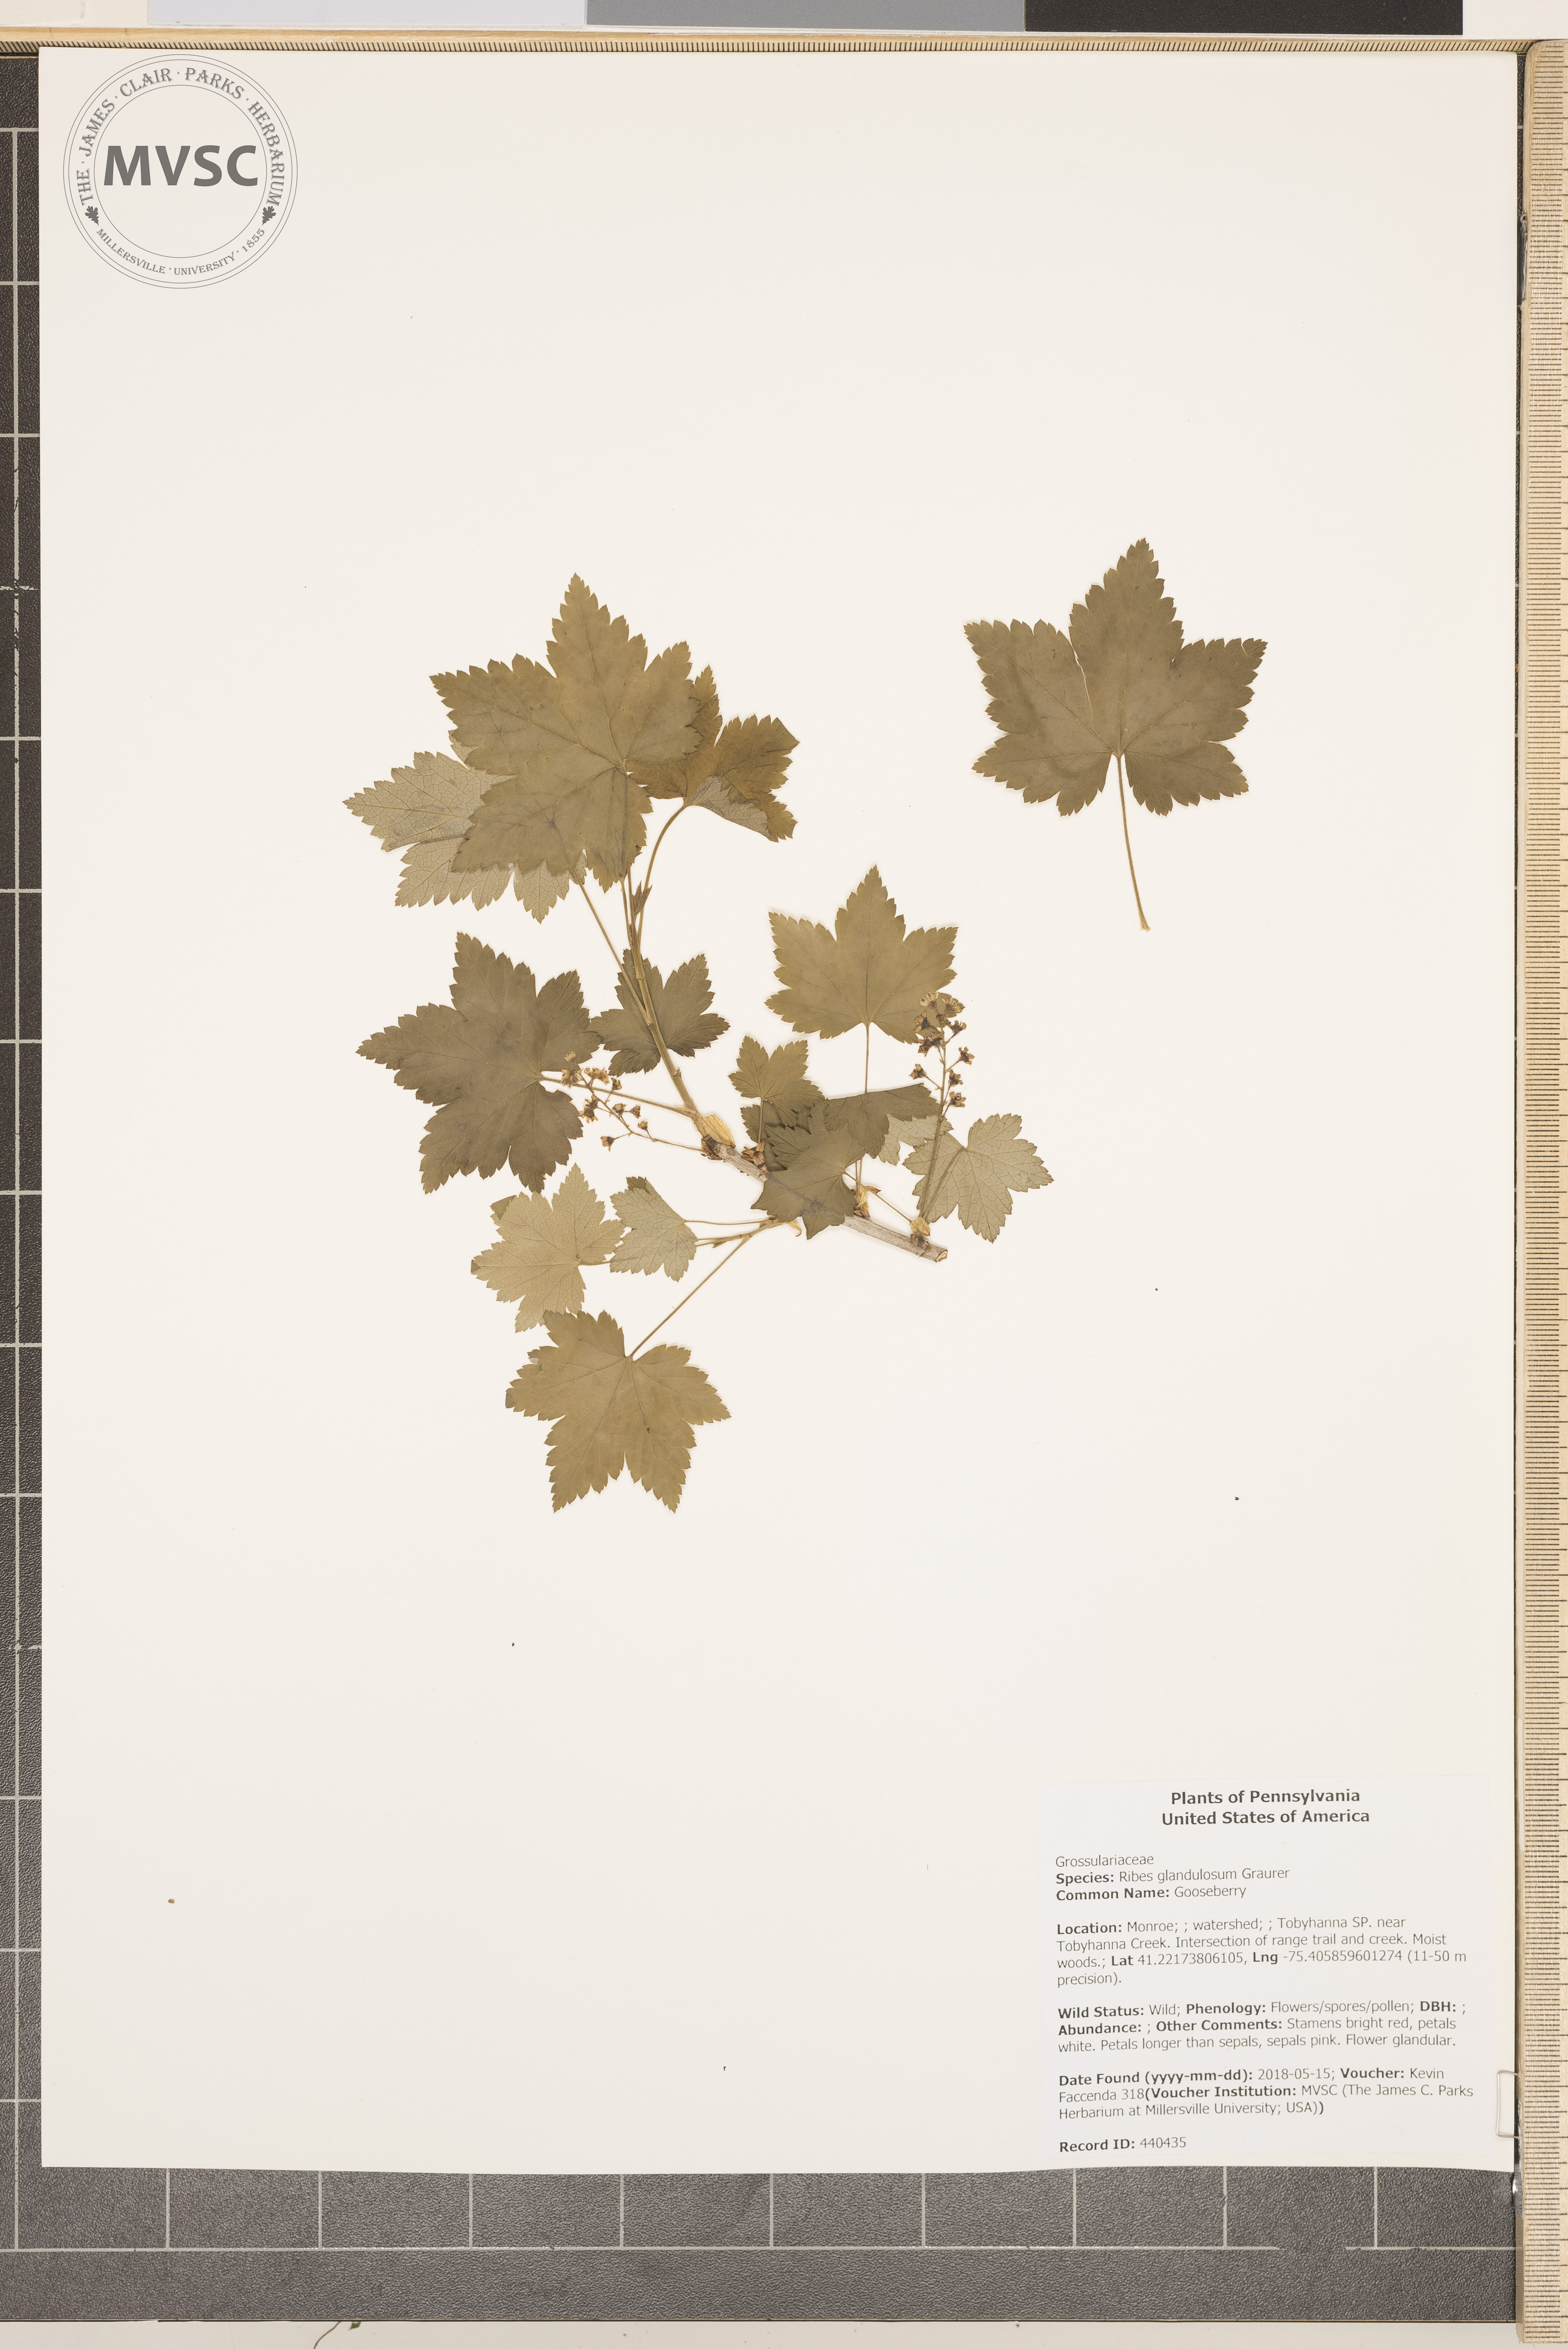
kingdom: Plantae
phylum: Tracheophyta
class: Magnoliopsida
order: Saxifragales
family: Grossulariaceae
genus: Ribes
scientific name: Ribes glandulosum
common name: Gooseberry
